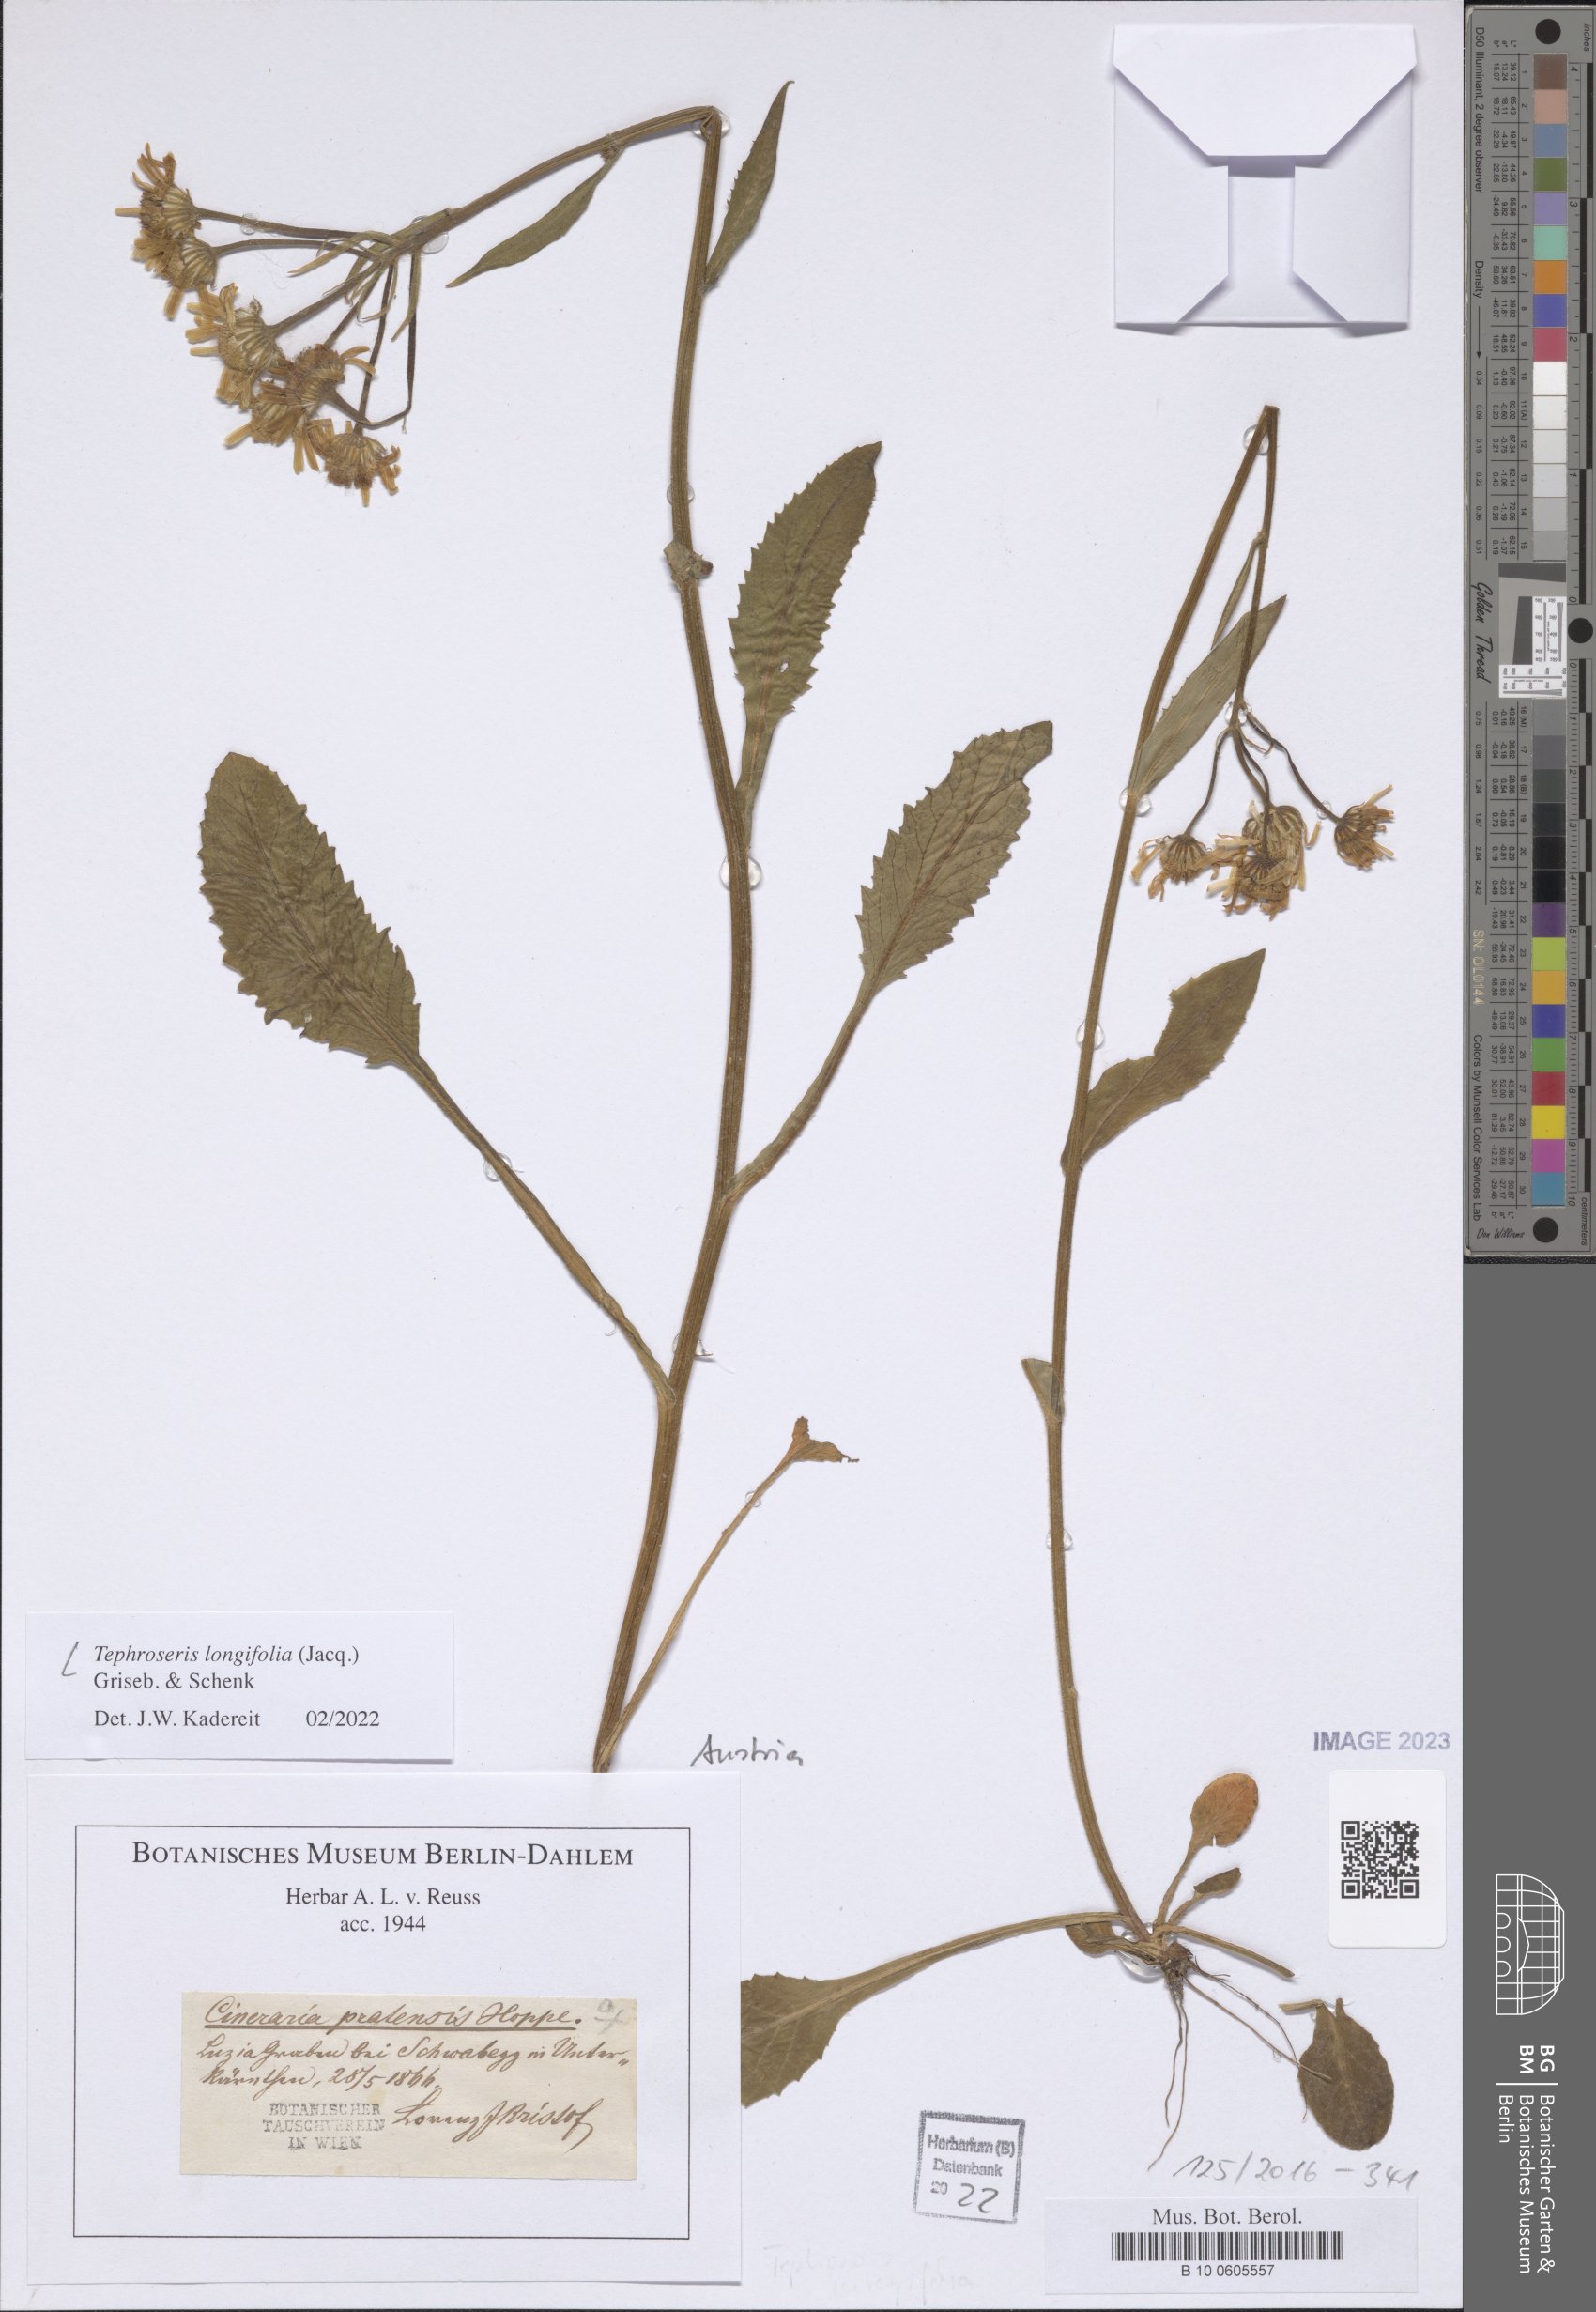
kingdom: Plantae
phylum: Tracheophyta
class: Magnoliopsida
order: Asterales
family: Asteraceae
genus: Tephroseris
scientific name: Tephroseris longifolia
